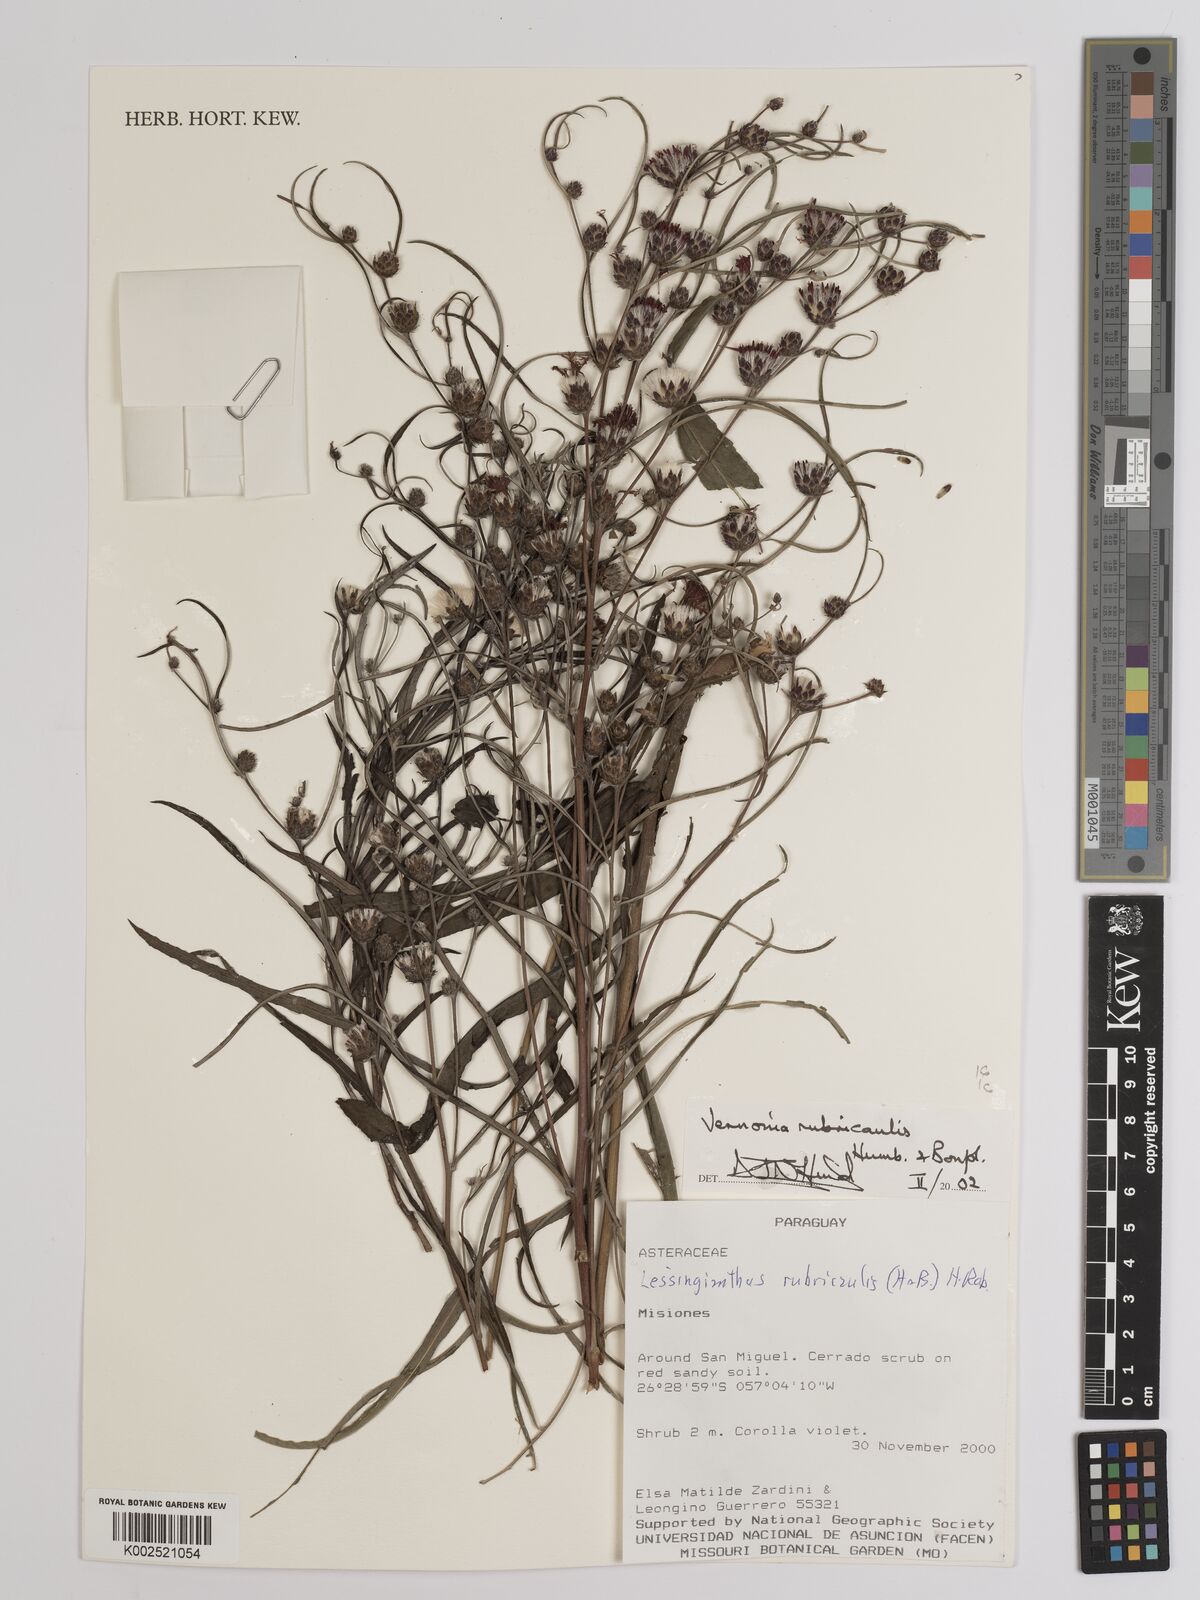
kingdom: Plantae
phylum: Tracheophyta
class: Magnoliopsida
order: Asterales
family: Asteraceae
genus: Lessingianthus
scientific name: Lessingianthus rubricaulis
